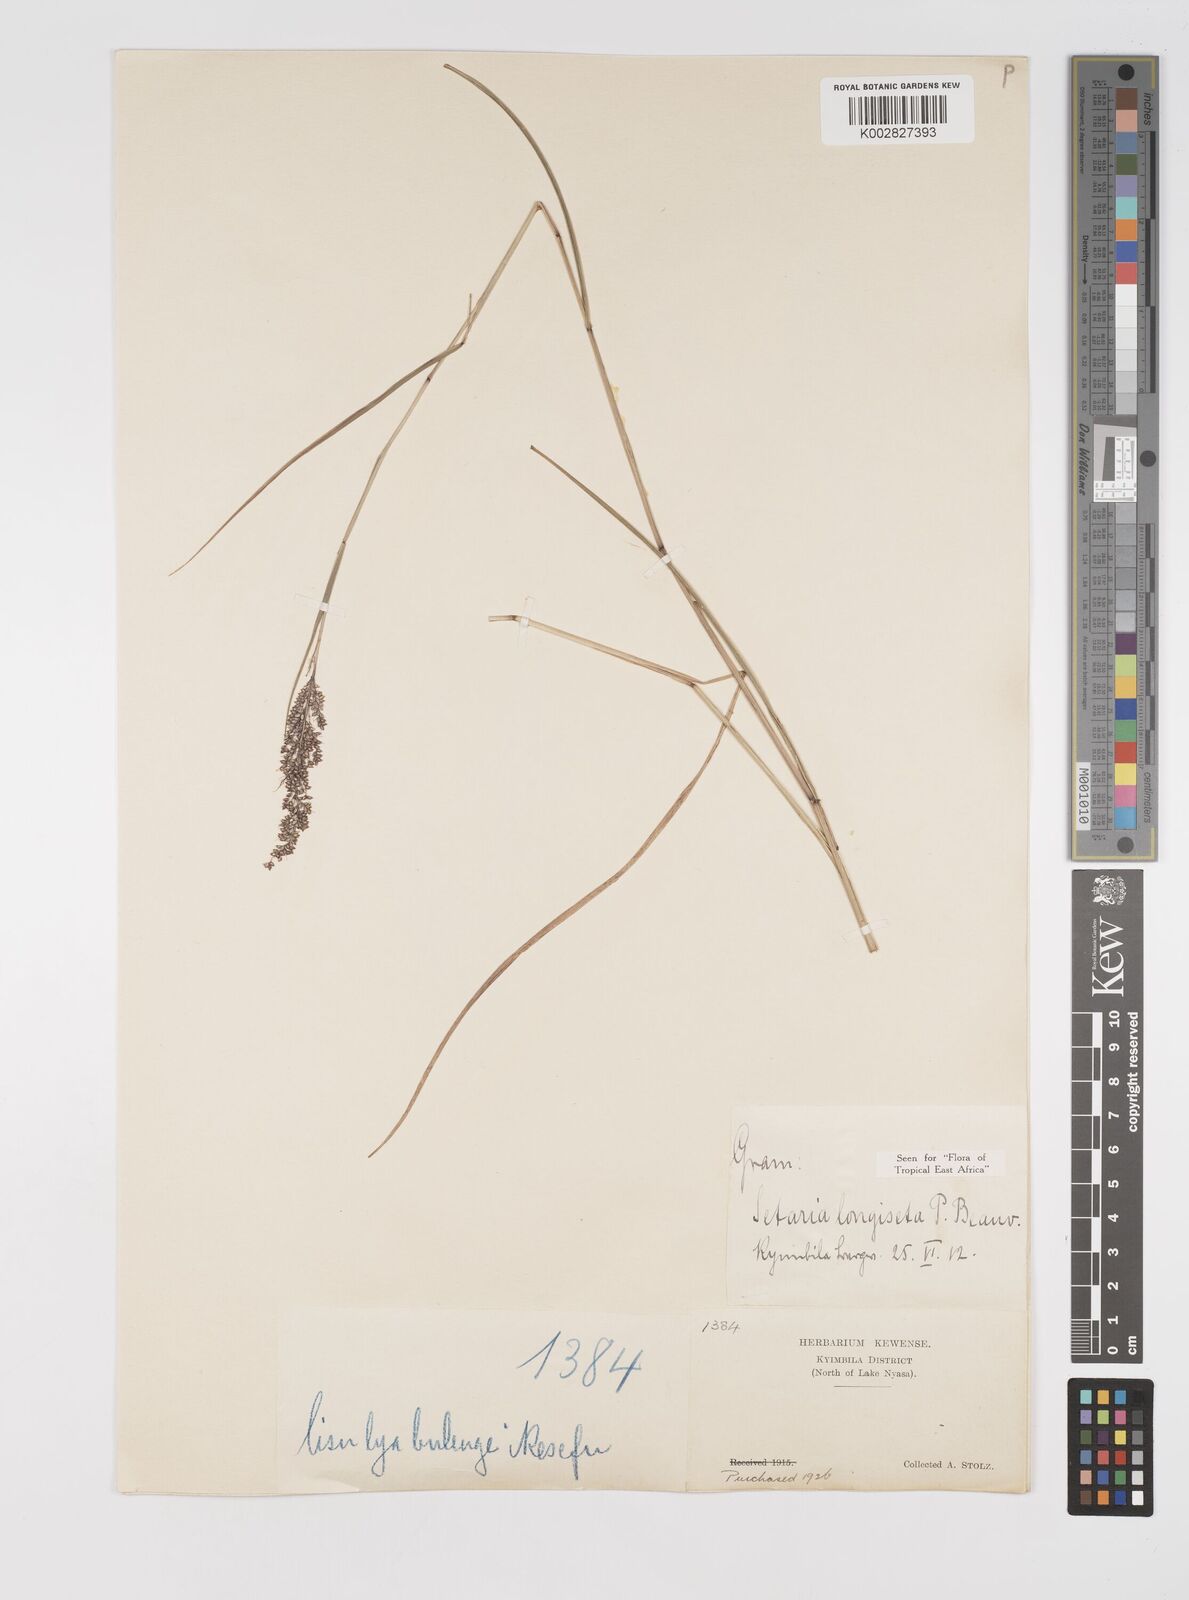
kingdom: Plantae
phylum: Tracheophyta
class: Liliopsida
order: Poales
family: Poaceae
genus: Setaria
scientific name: Setaria longiseta
